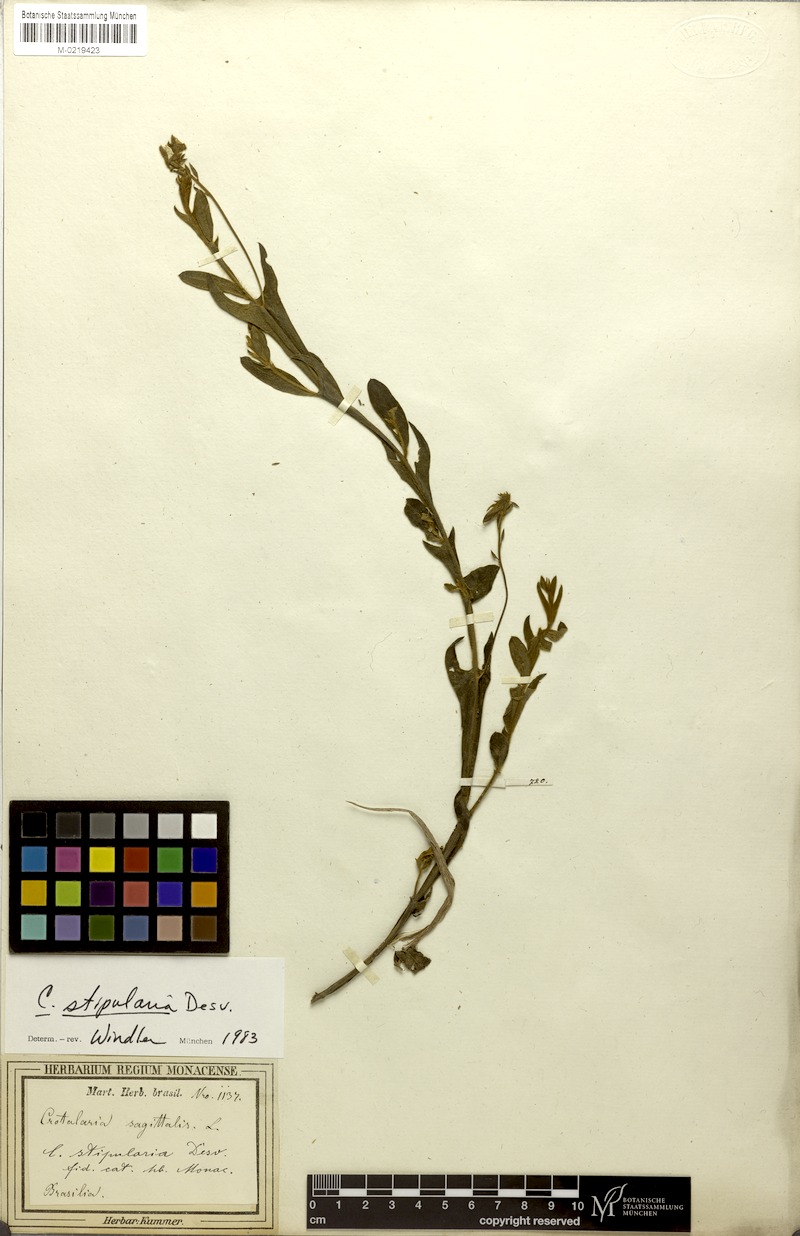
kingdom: Plantae
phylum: Tracheophyta
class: Magnoliopsida
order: Fabales
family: Fabaceae
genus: Crotalaria
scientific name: Crotalaria stipularia
